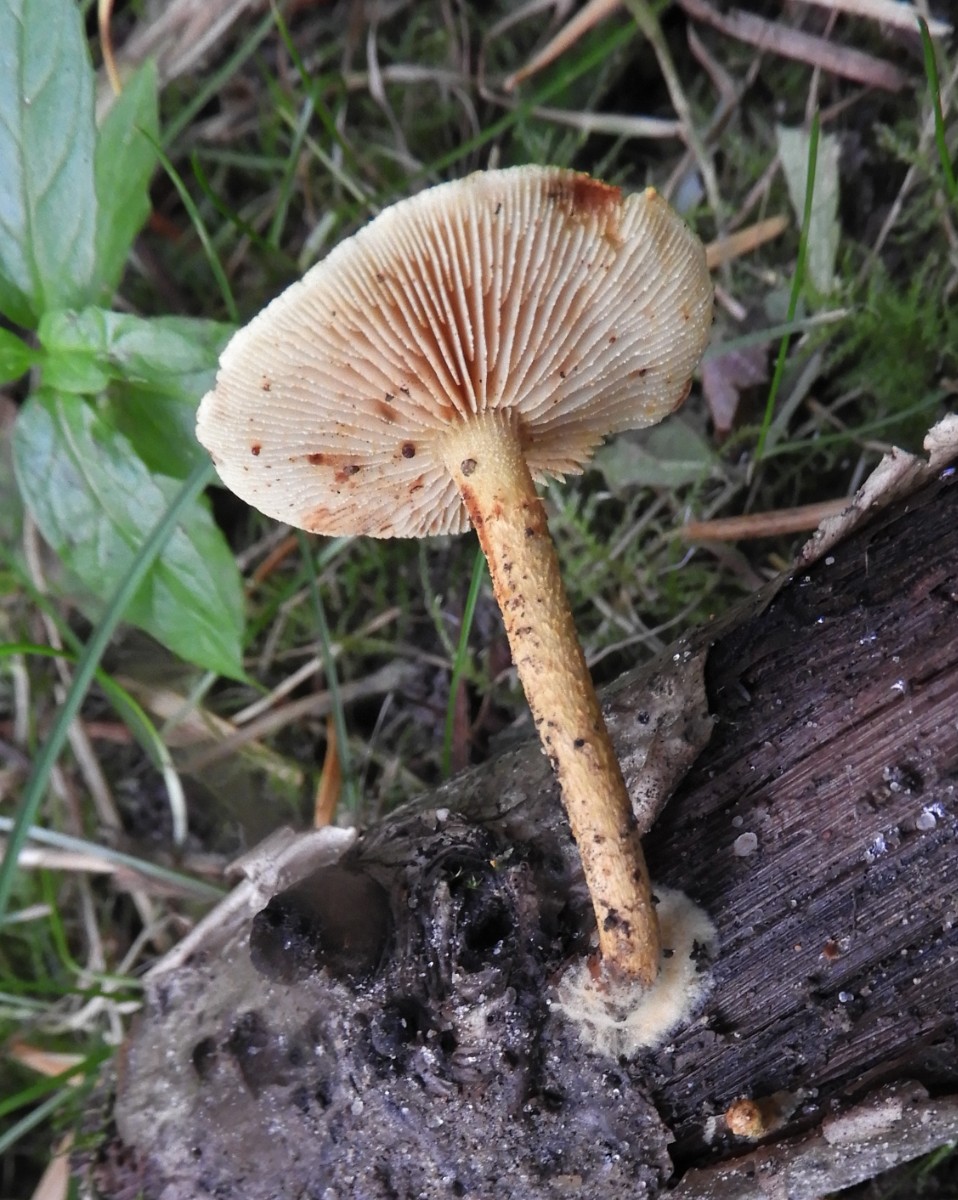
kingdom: Fungi
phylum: Basidiomycota
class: Agaricomycetes
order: Agaricales
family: Strophariaceae
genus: Pholiota
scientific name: Pholiota tuberculosa
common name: finskællet skælhat
